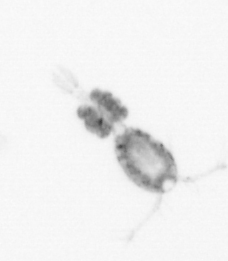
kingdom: Animalia
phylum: Arthropoda
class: Copepoda
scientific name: Copepoda
